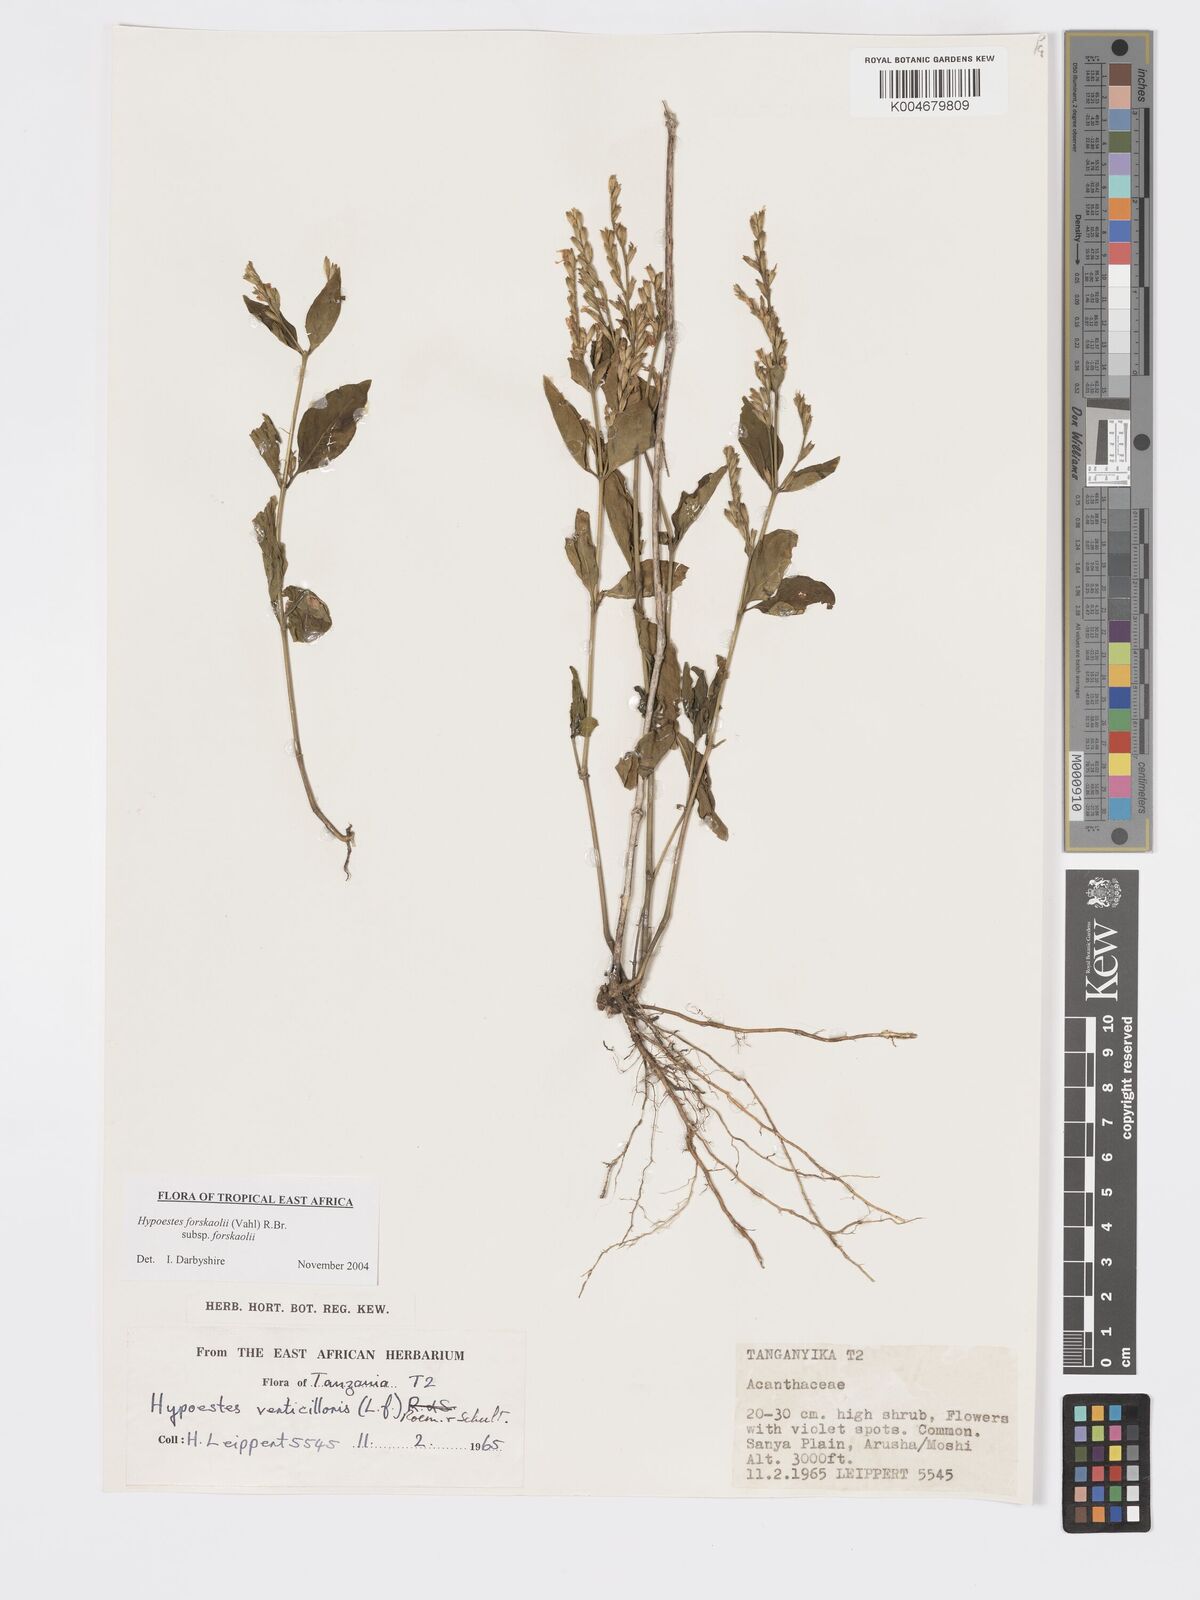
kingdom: Plantae
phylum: Tracheophyta
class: Magnoliopsida
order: Lamiales
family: Acanthaceae
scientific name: Acanthaceae
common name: Acanthaceae
